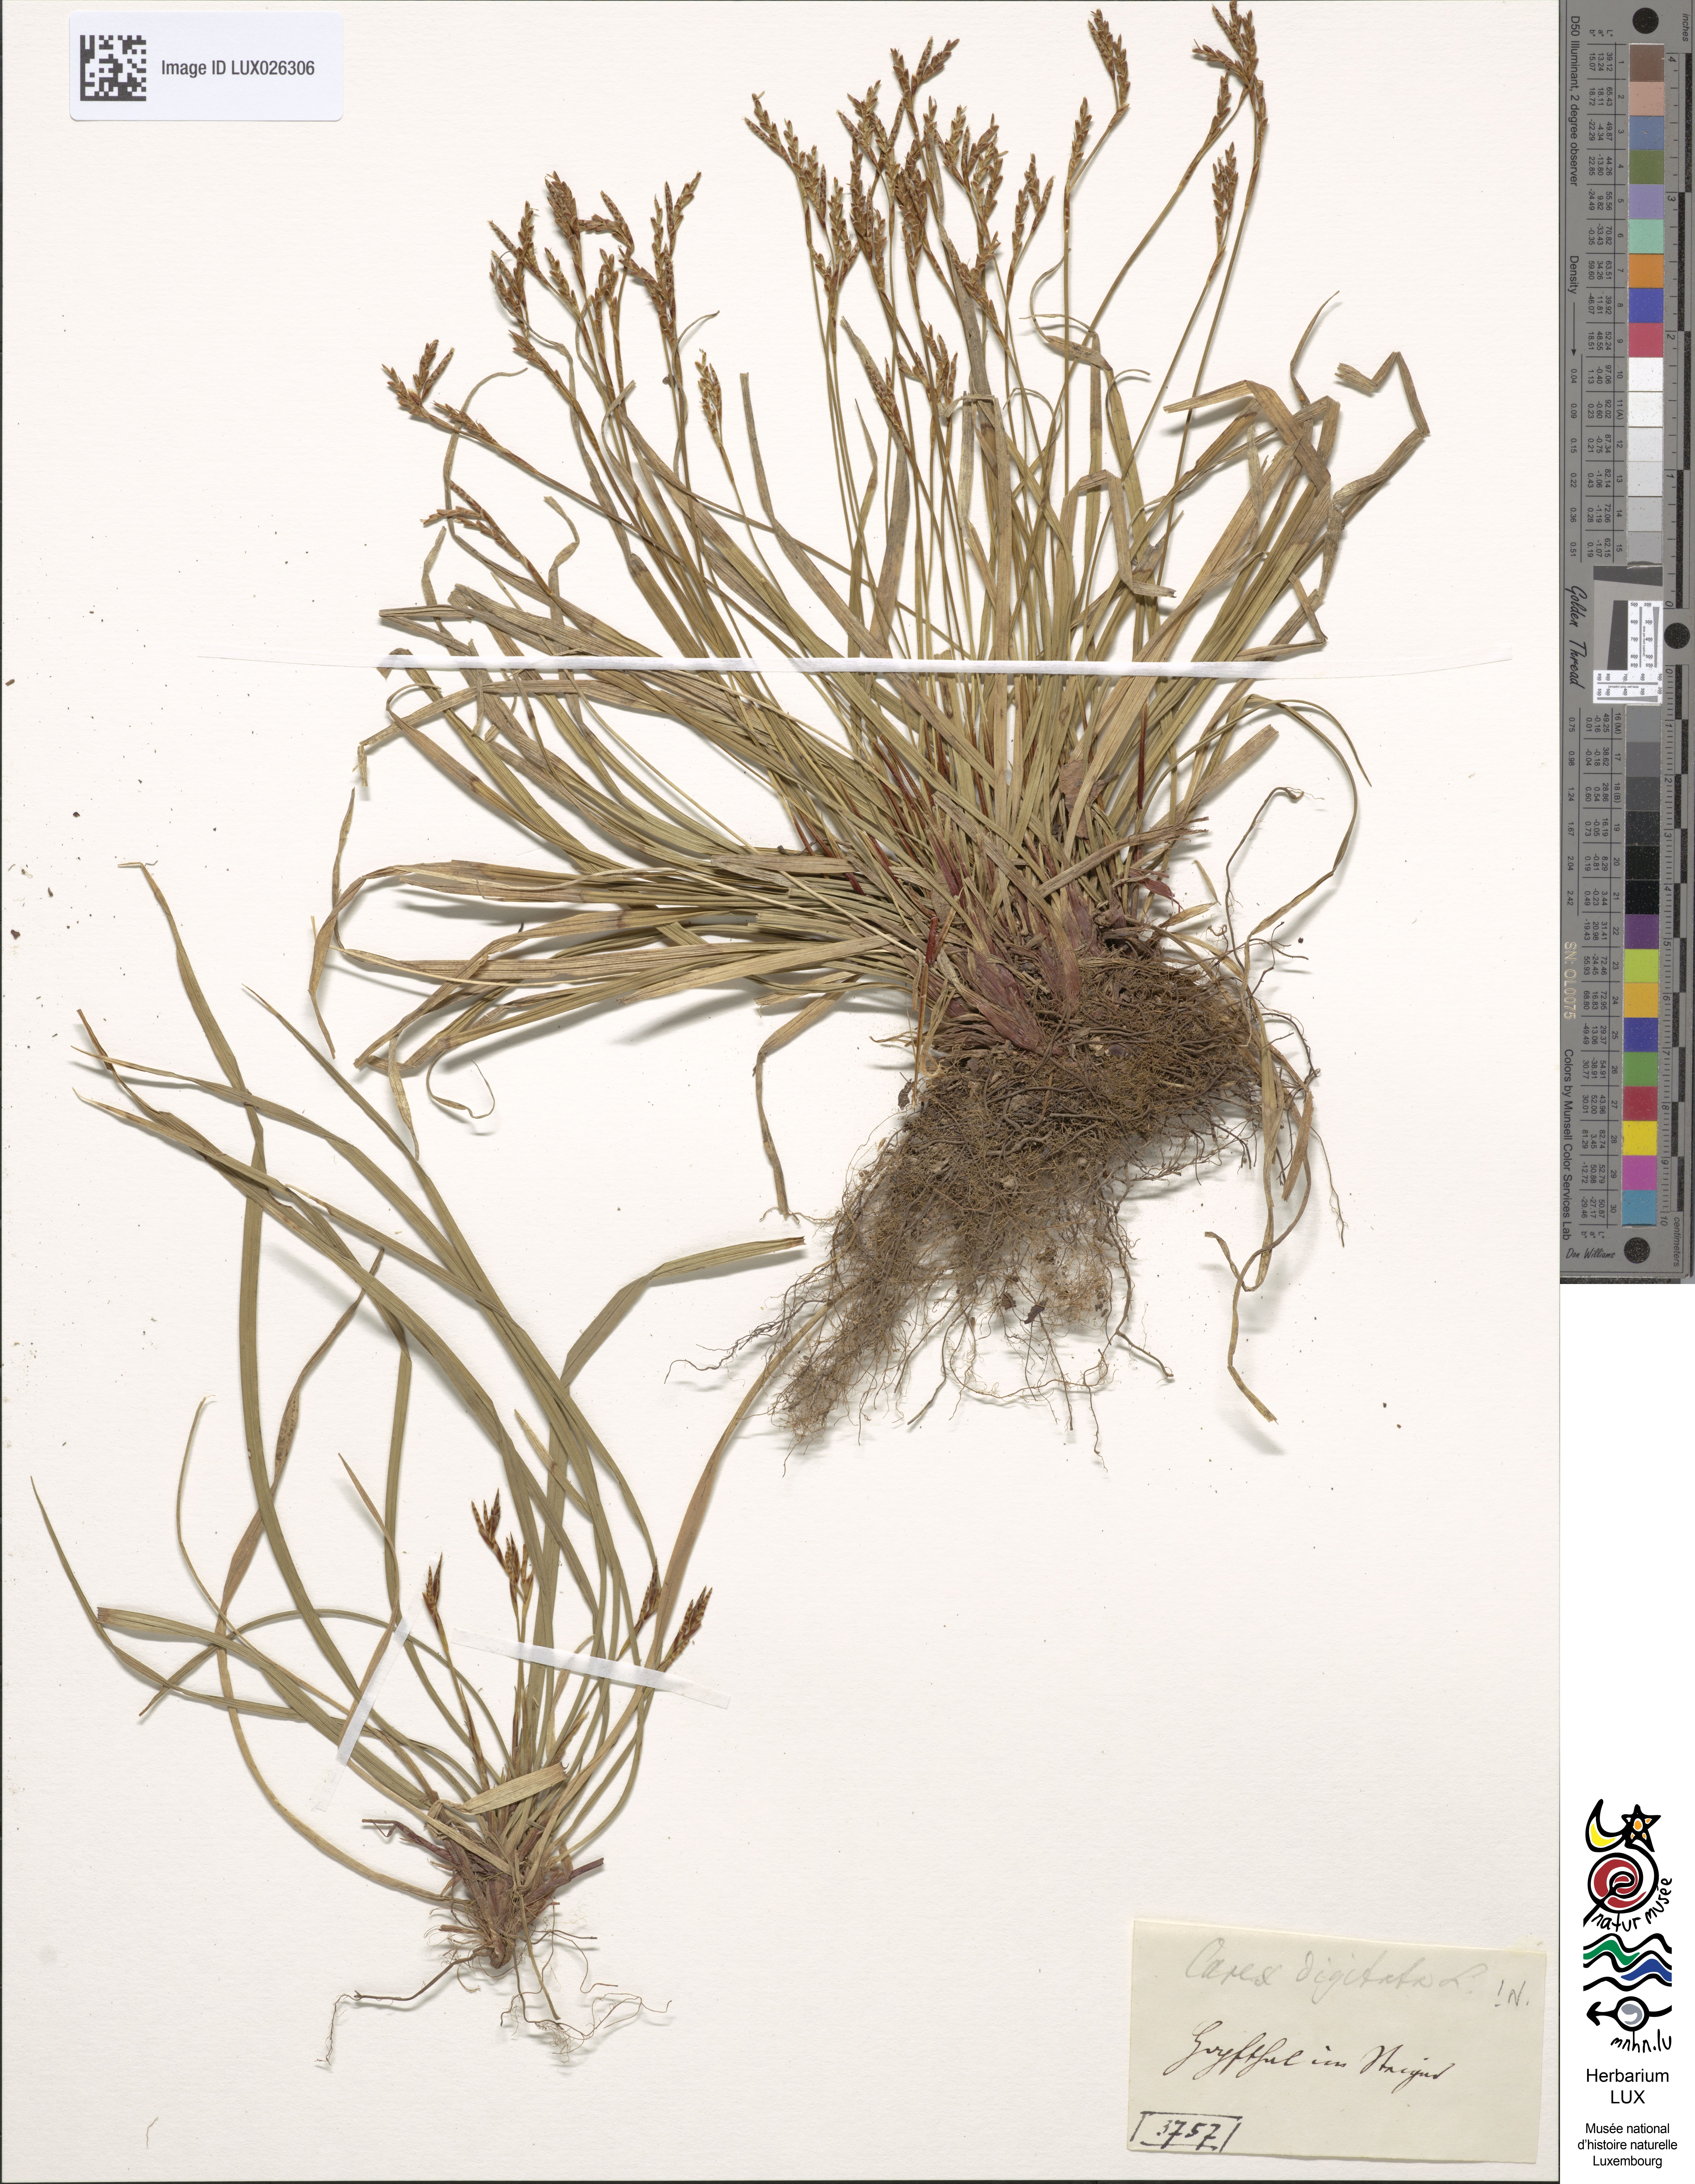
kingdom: Plantae
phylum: Tracheophyta
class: Liliopsida
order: Poales
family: Cyperaceae
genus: Carex
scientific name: Carex digitata
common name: Fingered sedge
